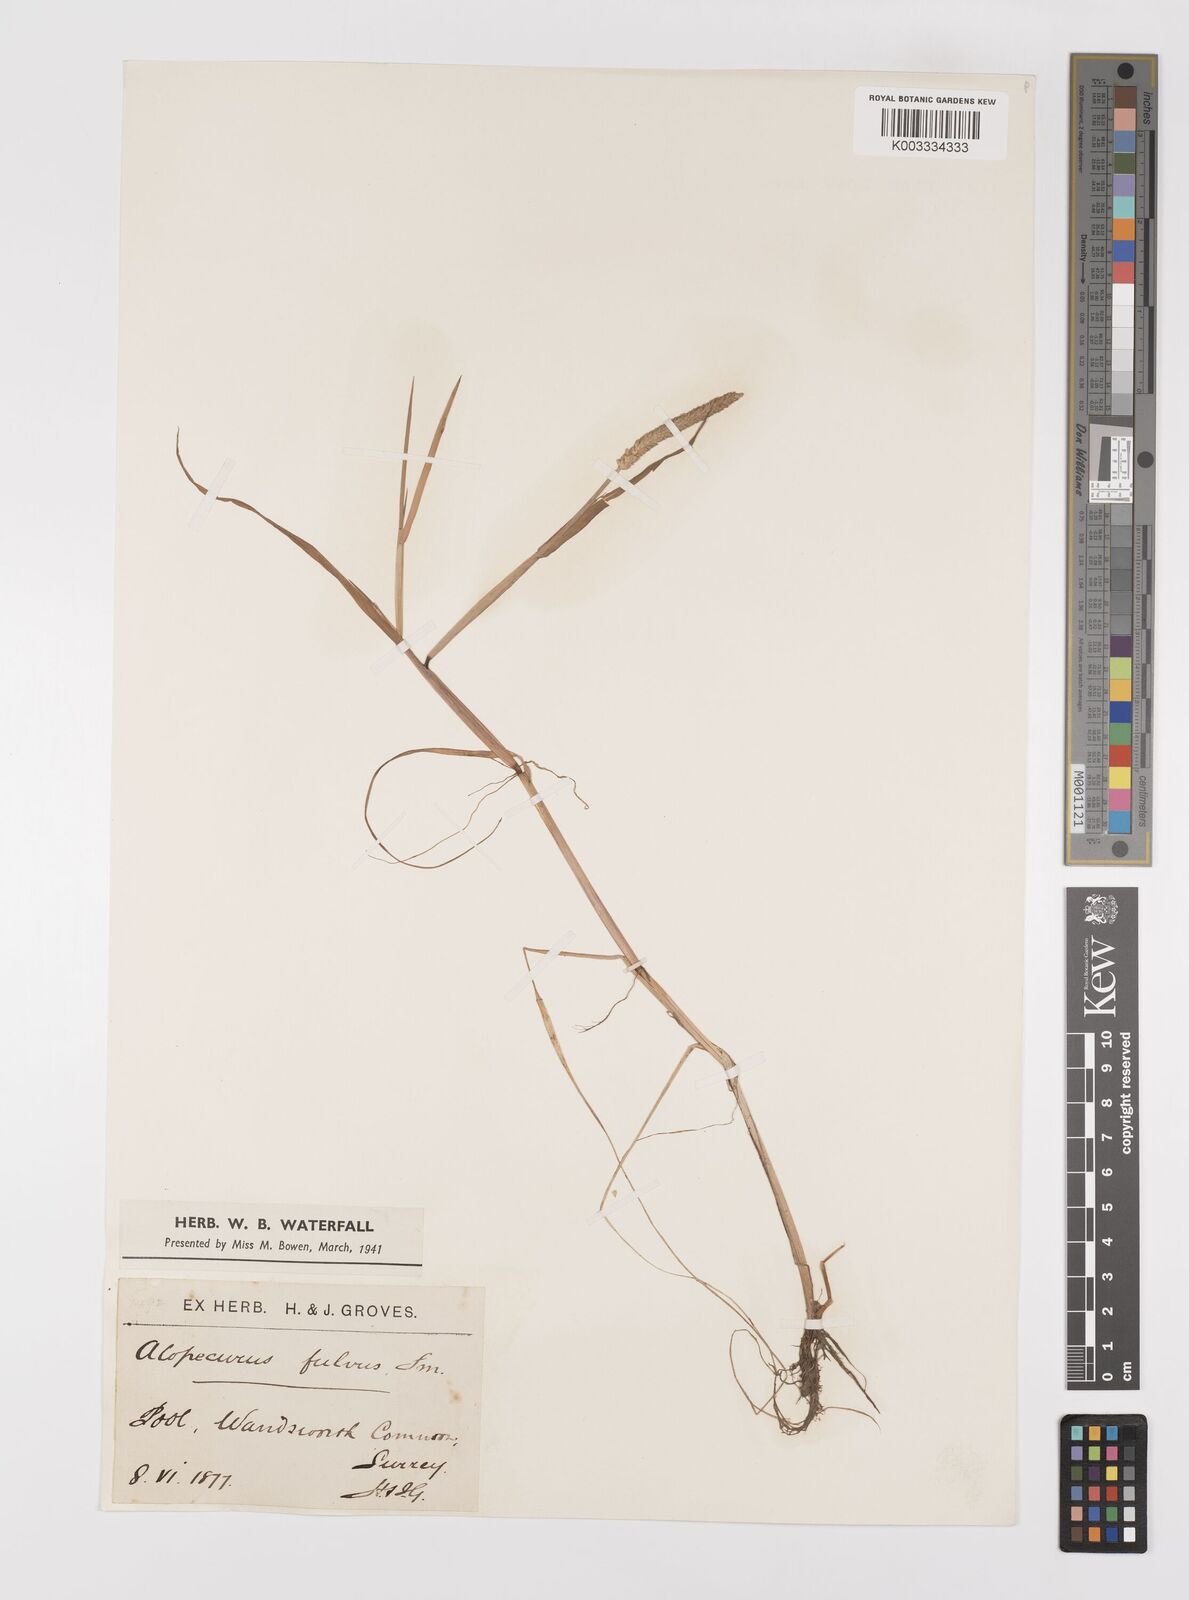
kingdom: Plantae
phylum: Tracheophyta
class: Liliopsida
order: Poales
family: Poaceae
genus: Alopecurus
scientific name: Alopecurus aequalis
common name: Orange foxtail
